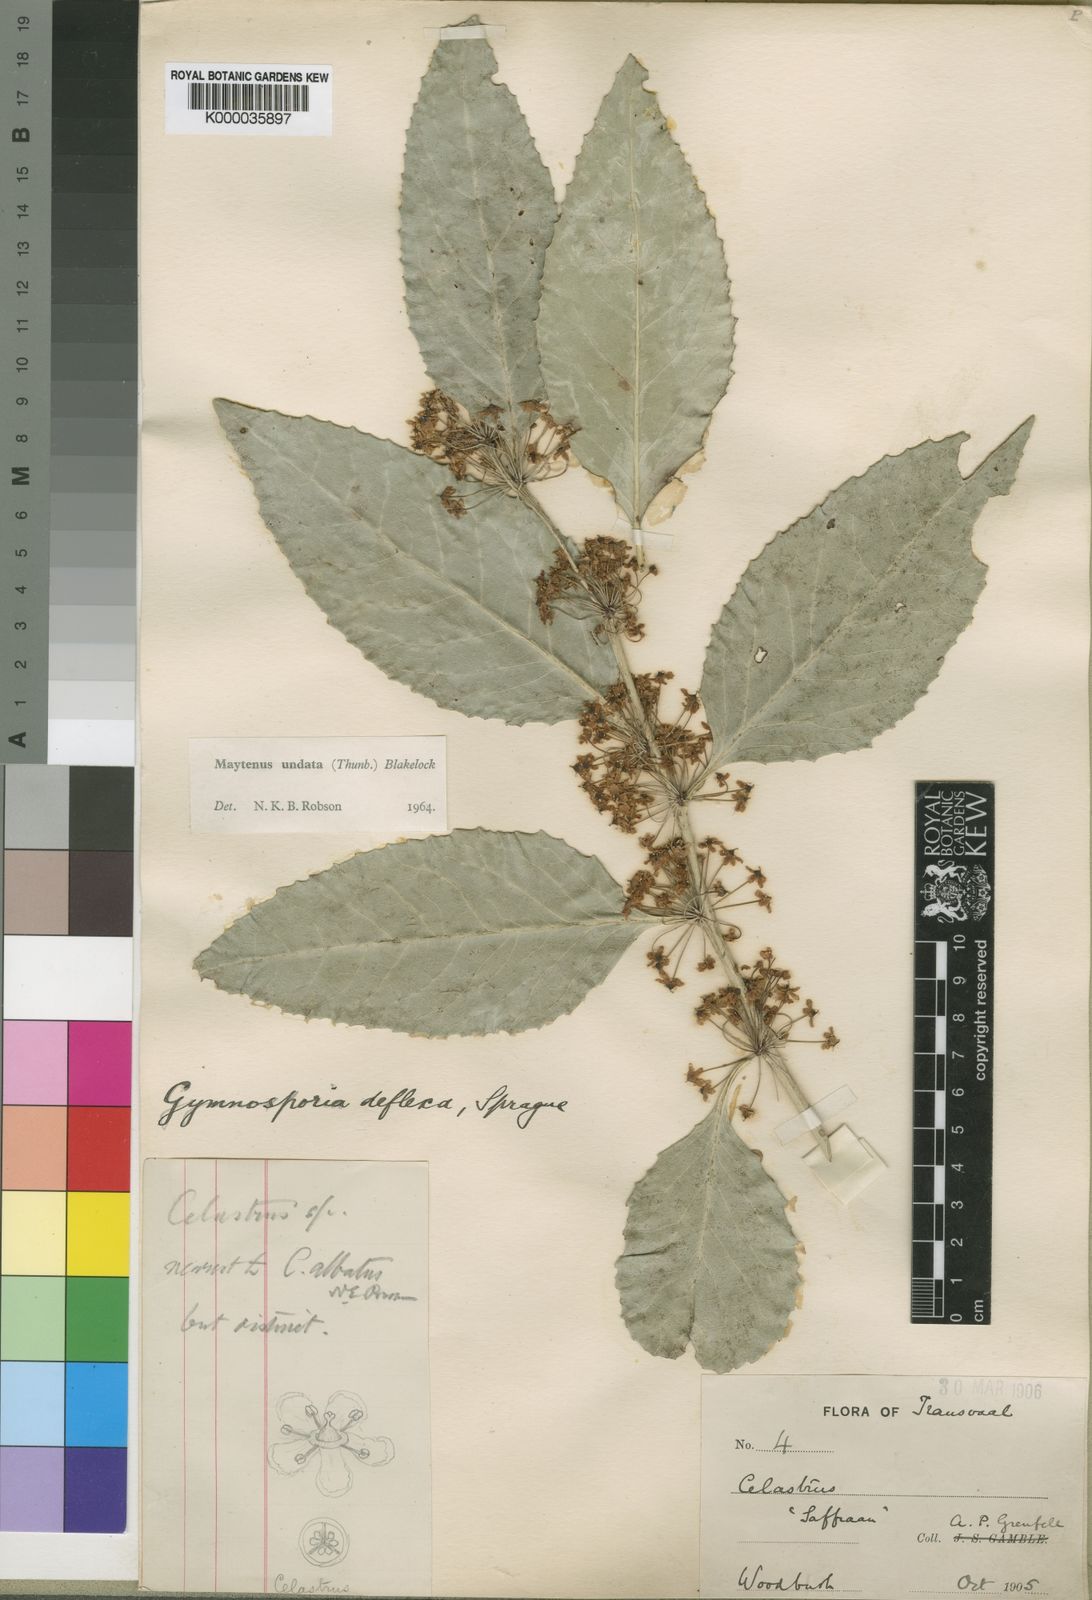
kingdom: Plantae
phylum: Tracheophyta
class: Magnoliopsida
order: Celastrales
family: Celastraceae
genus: Gymnosporia
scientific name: Gymnosporia undata
